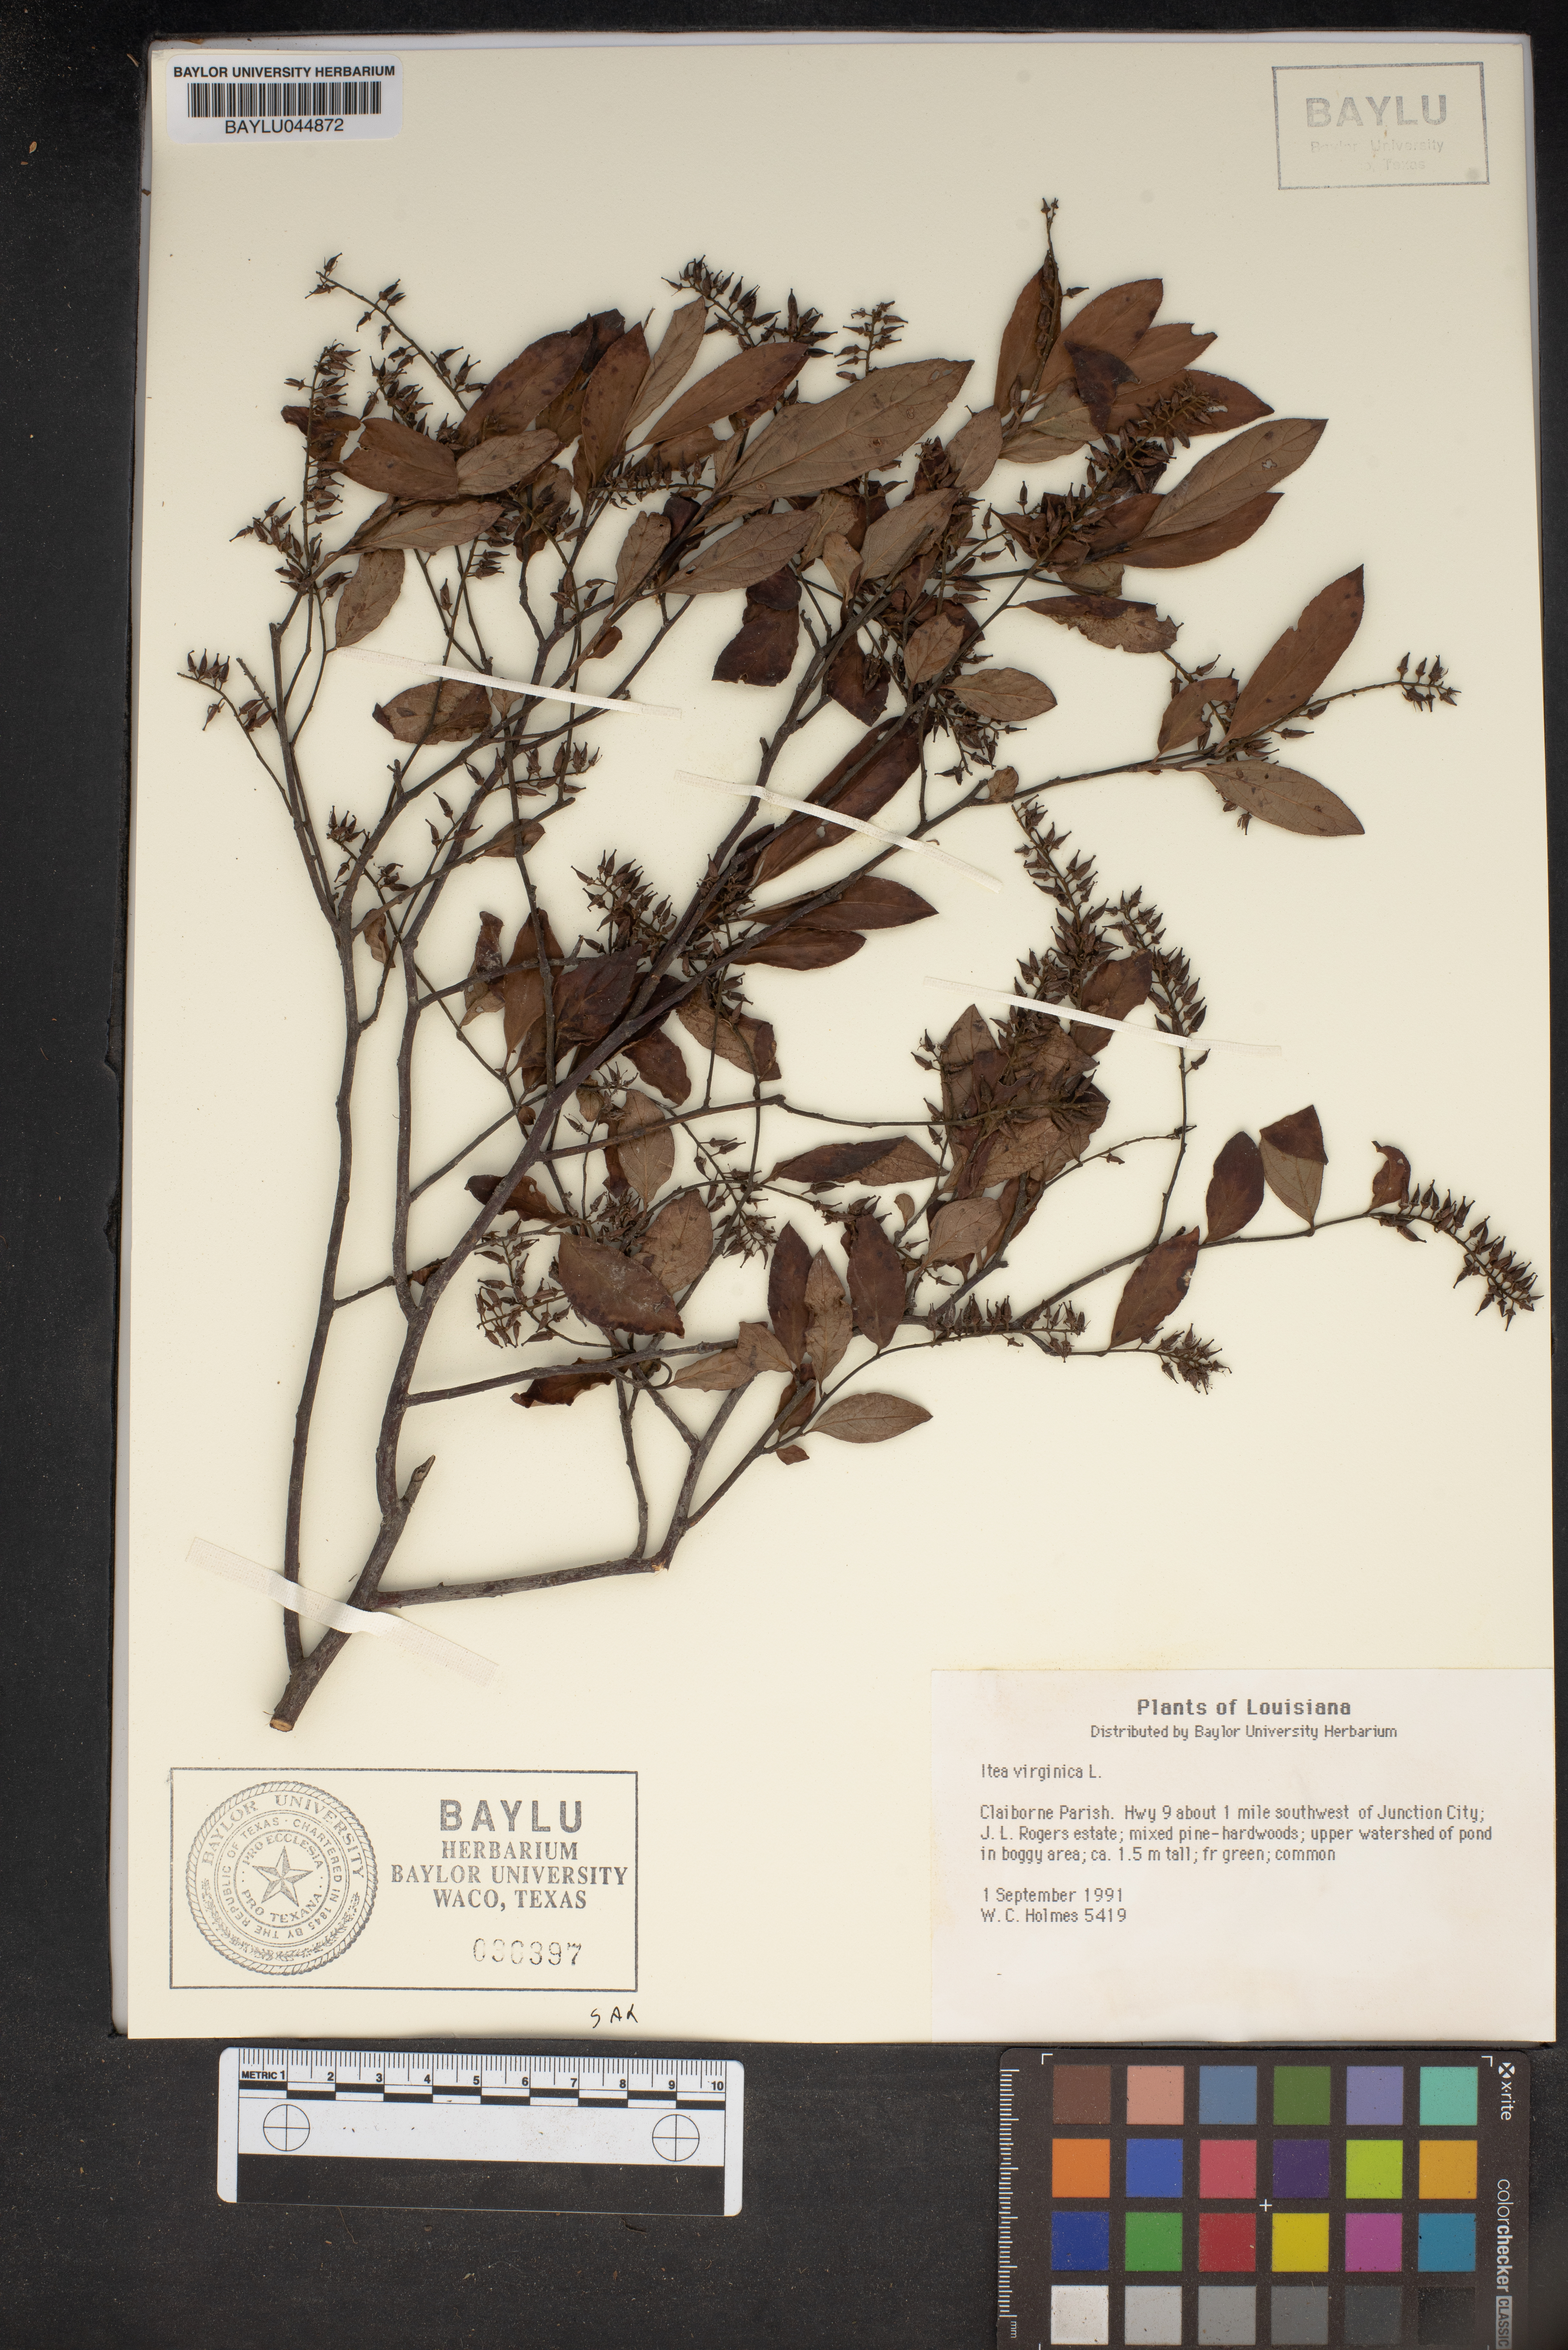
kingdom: Plantae
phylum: Tracheophyta
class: Magnoliopsida
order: Saxifragales
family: Iteaceae
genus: Itea
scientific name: Itea virginica
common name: Sweetspire
